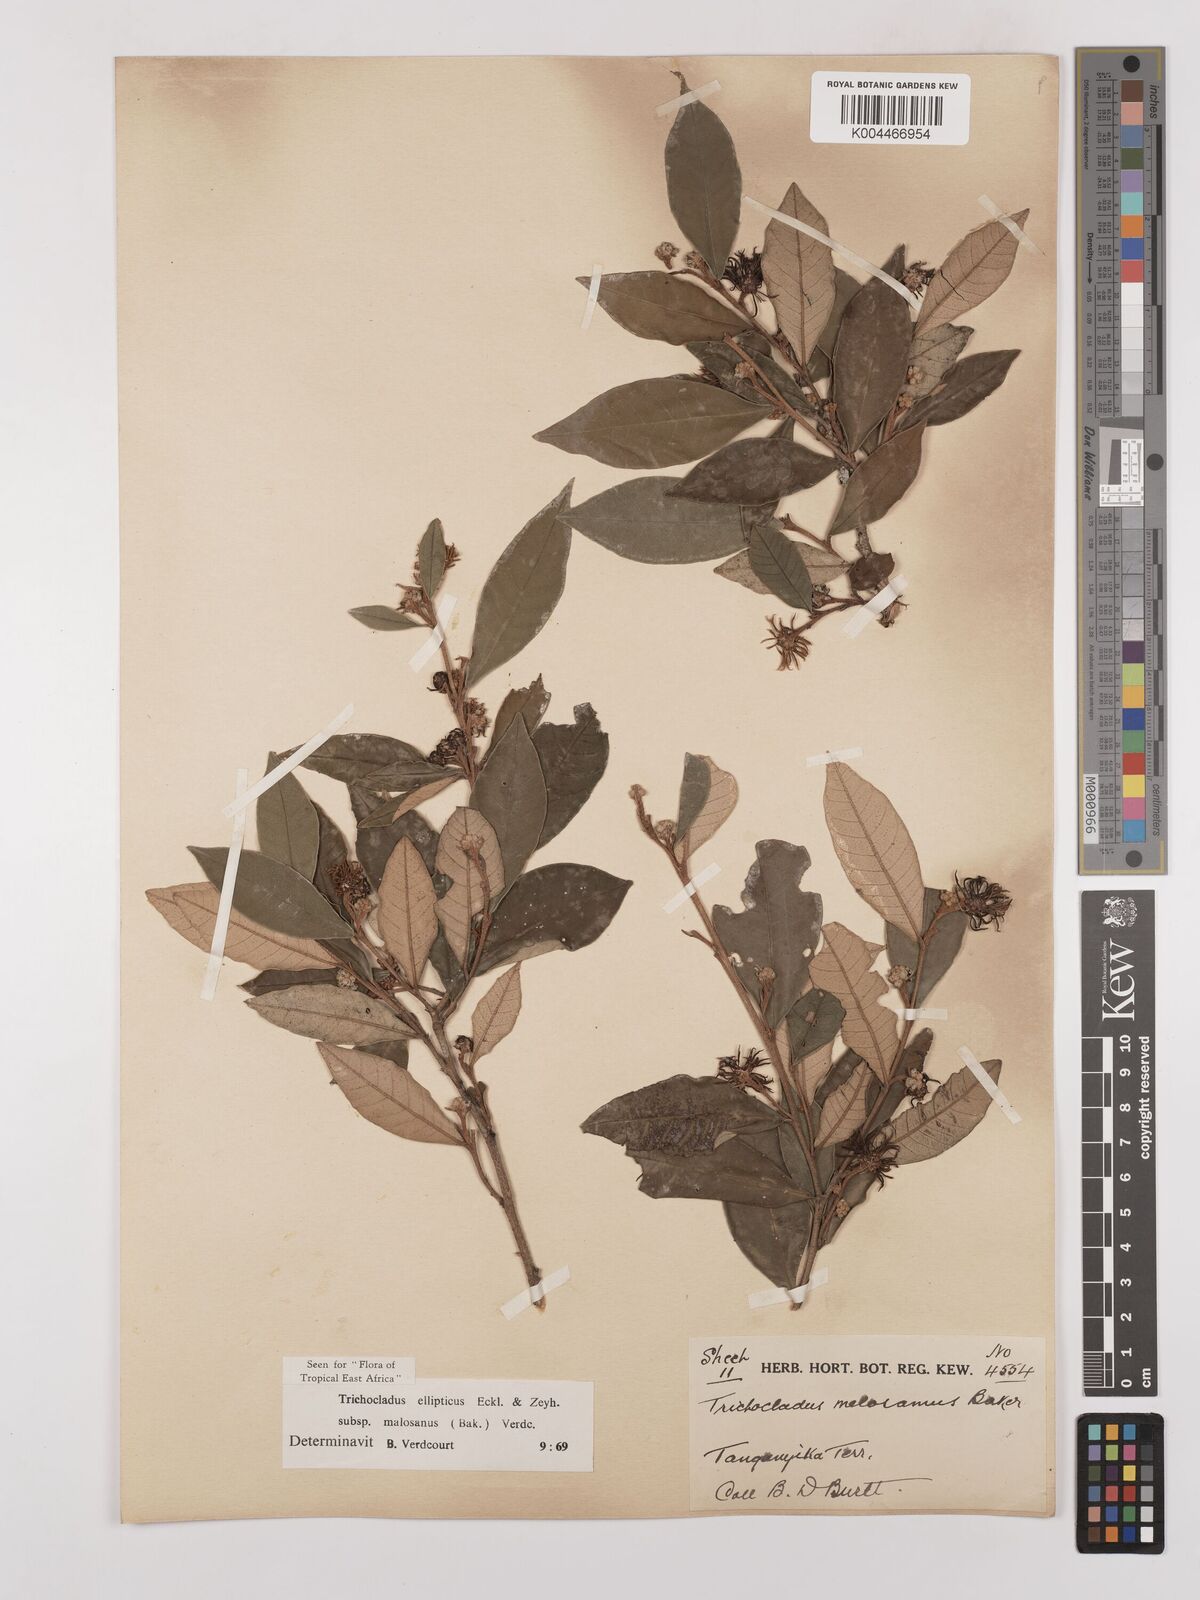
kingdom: Plantae
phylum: Tracheophyta
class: Magnoliopsida
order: Saxifragales
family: Hamamelidaceae
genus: Trichocladus
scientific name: Trichocladus ellipticus
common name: White witch-hazel
